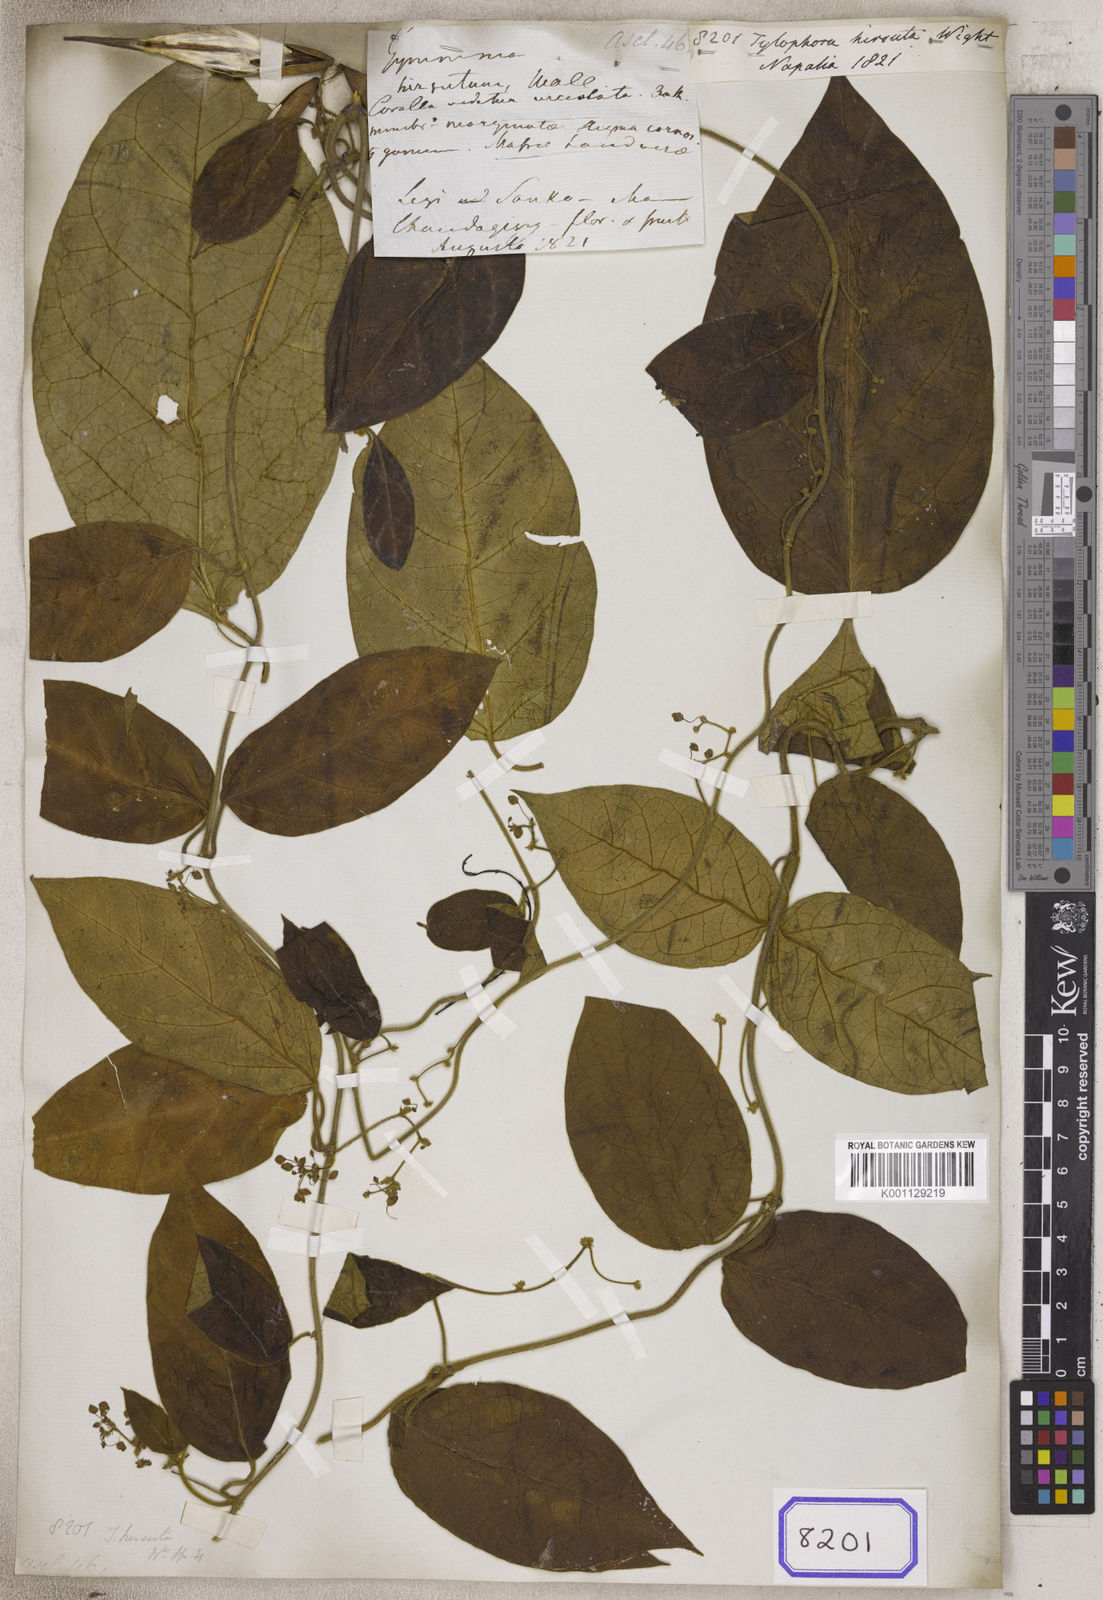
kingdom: Plantae
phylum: Tracheophyta
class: Magnoliopsida
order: Gentianales
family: Apocynaceae
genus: Vincetoxicum
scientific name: Vincetoxicum hirsutum
